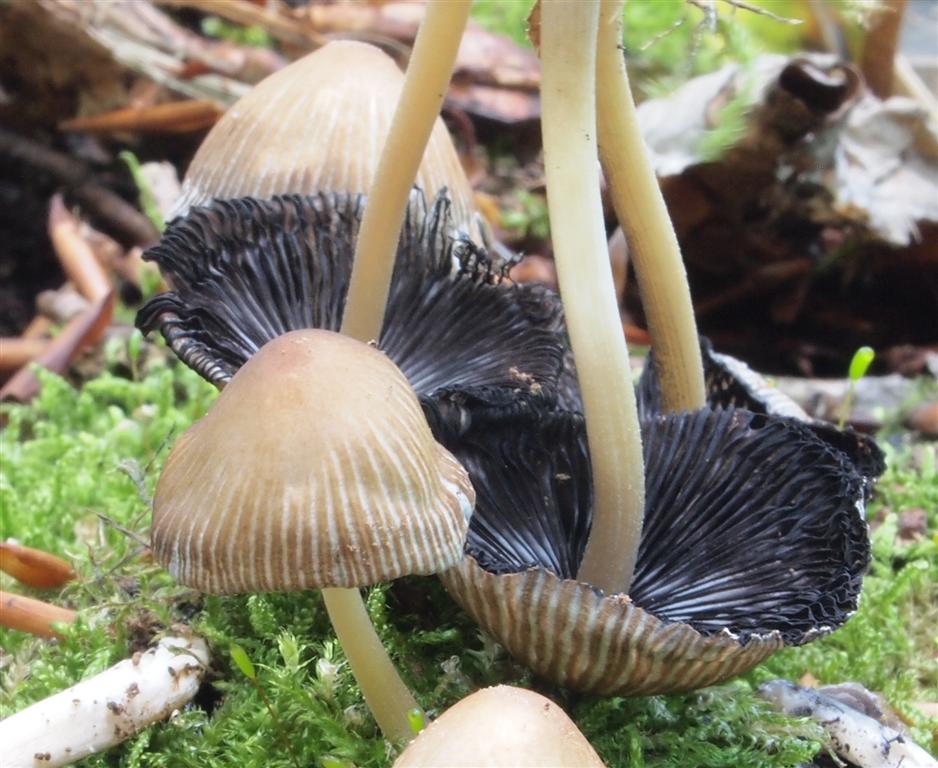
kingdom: Fungi
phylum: Basidiomycota
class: Agaricomycetes
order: Agaricales
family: Psathyrellaceae
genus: Coprinellus
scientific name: Coprinellus micaceus
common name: glimmer-blækhat
